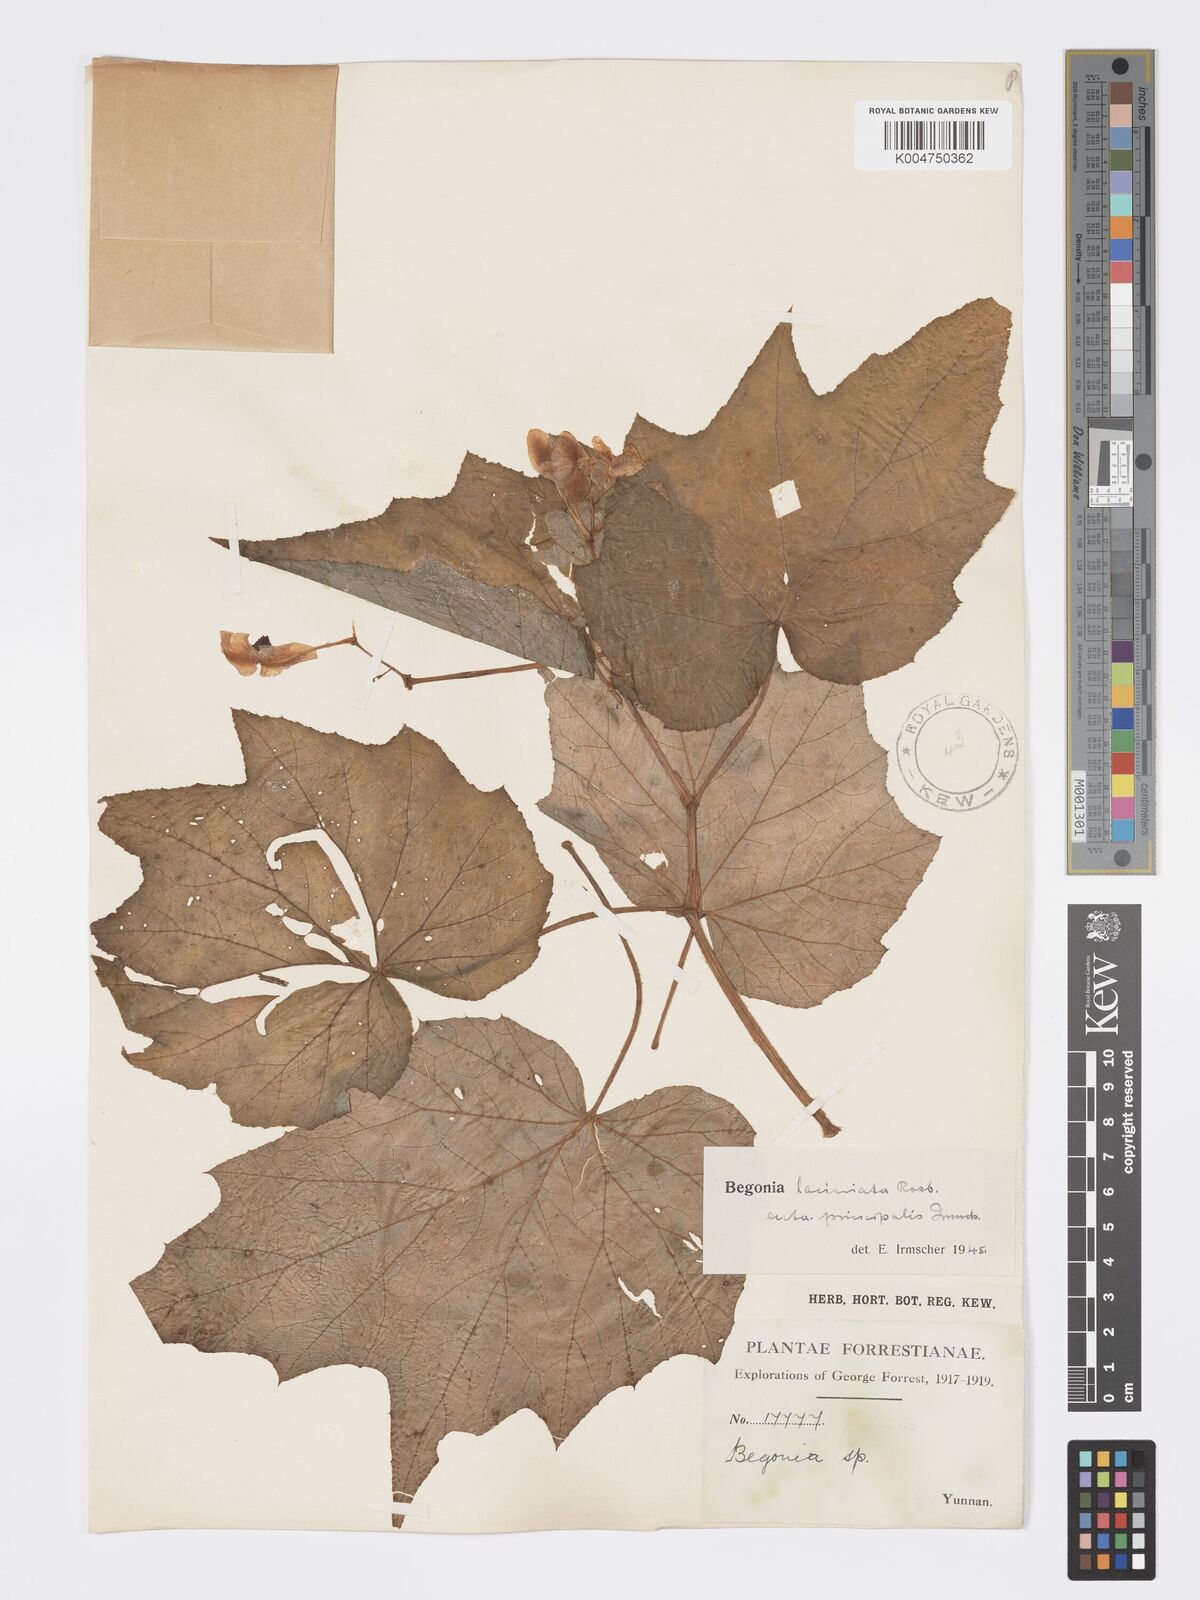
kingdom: Plantae
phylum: Tracheophyta
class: Magnoliopsida
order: Cucurbitales
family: Begoniaceae
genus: Begonia
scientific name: Begonia palmata
